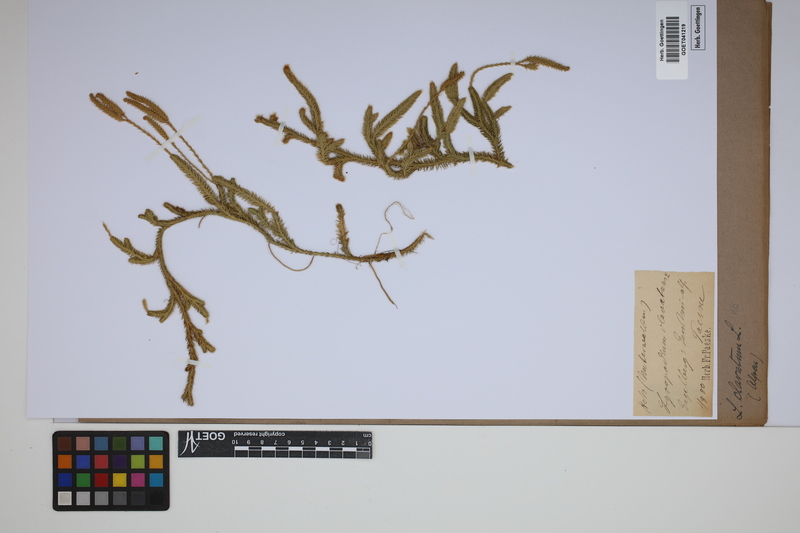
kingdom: Plantae
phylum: Tracheophyta
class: Lycopodiopsida
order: Lycopodiales
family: Lycopodiaceae
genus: Lycopodium
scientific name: Lycopodium clavatum
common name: Stag's-horn clubmoss
